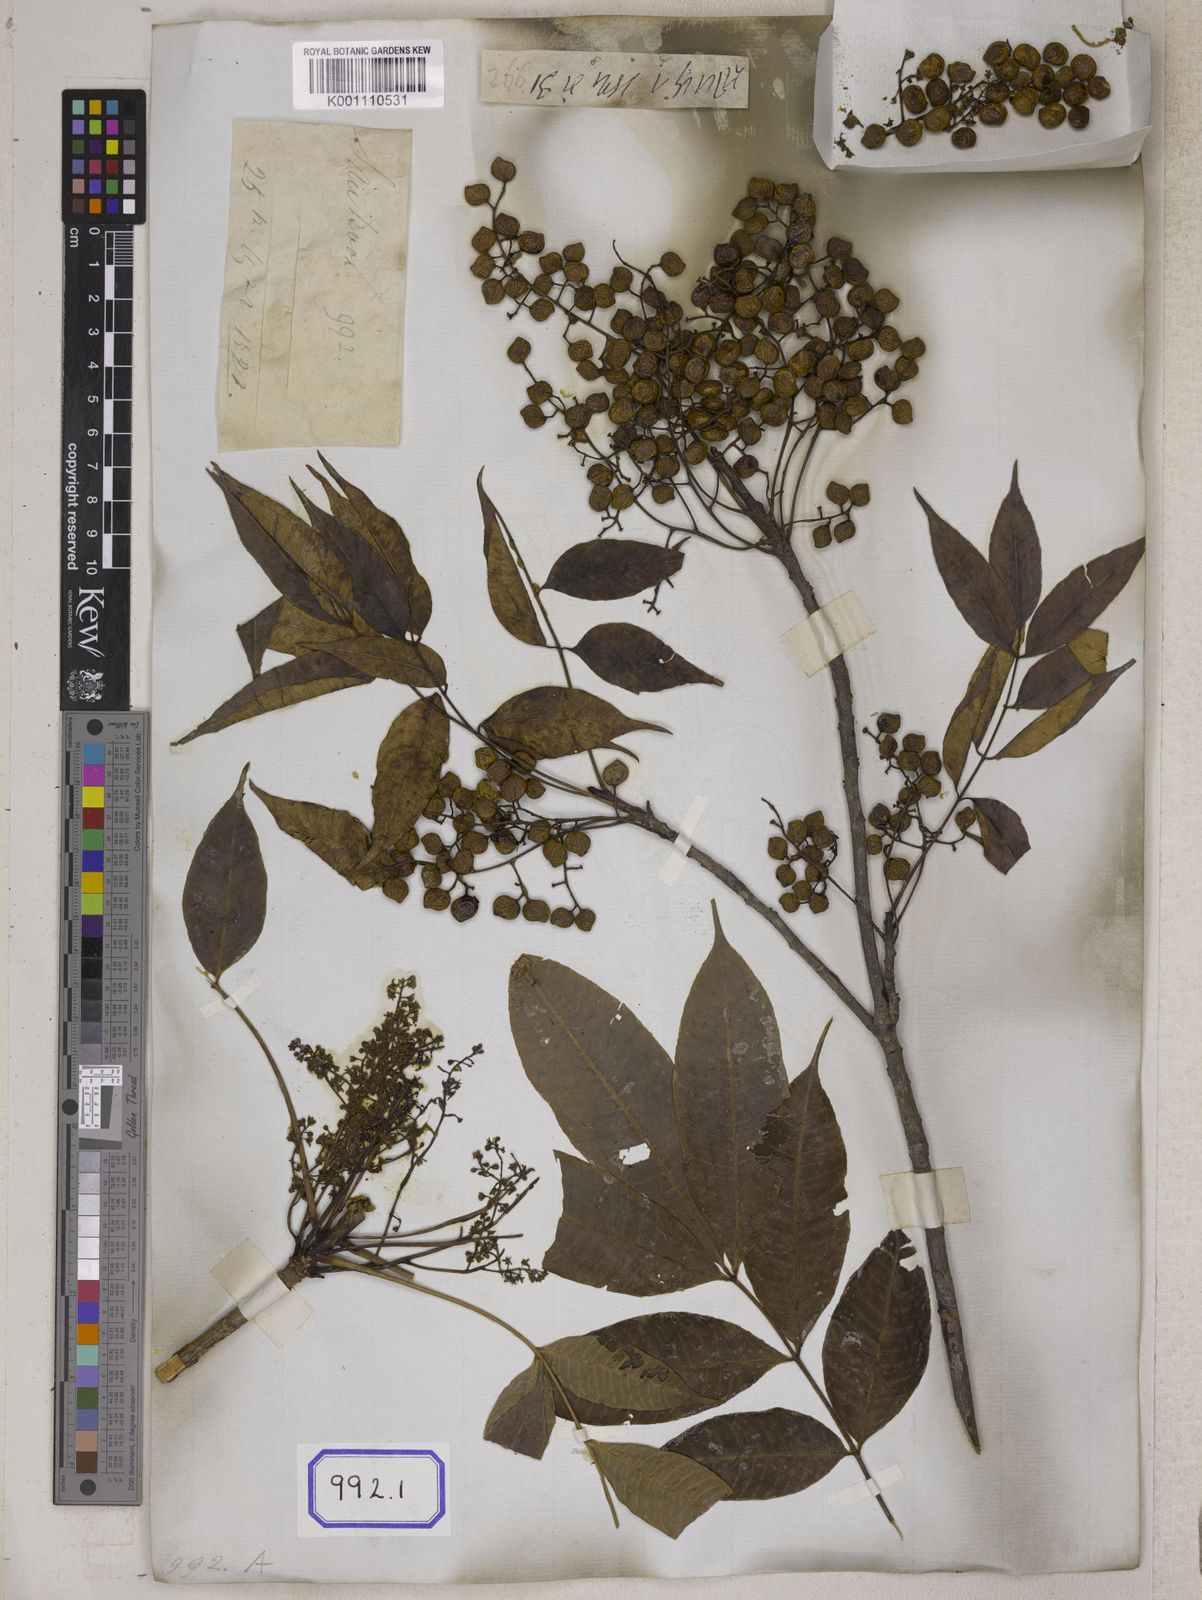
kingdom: Plantae
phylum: Tracheophyta
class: Magnoliopsida
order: Sapindales
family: Anacardiaceae
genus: Toxicodendron
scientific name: Toxicodendron succedaneum
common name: Wax tree
